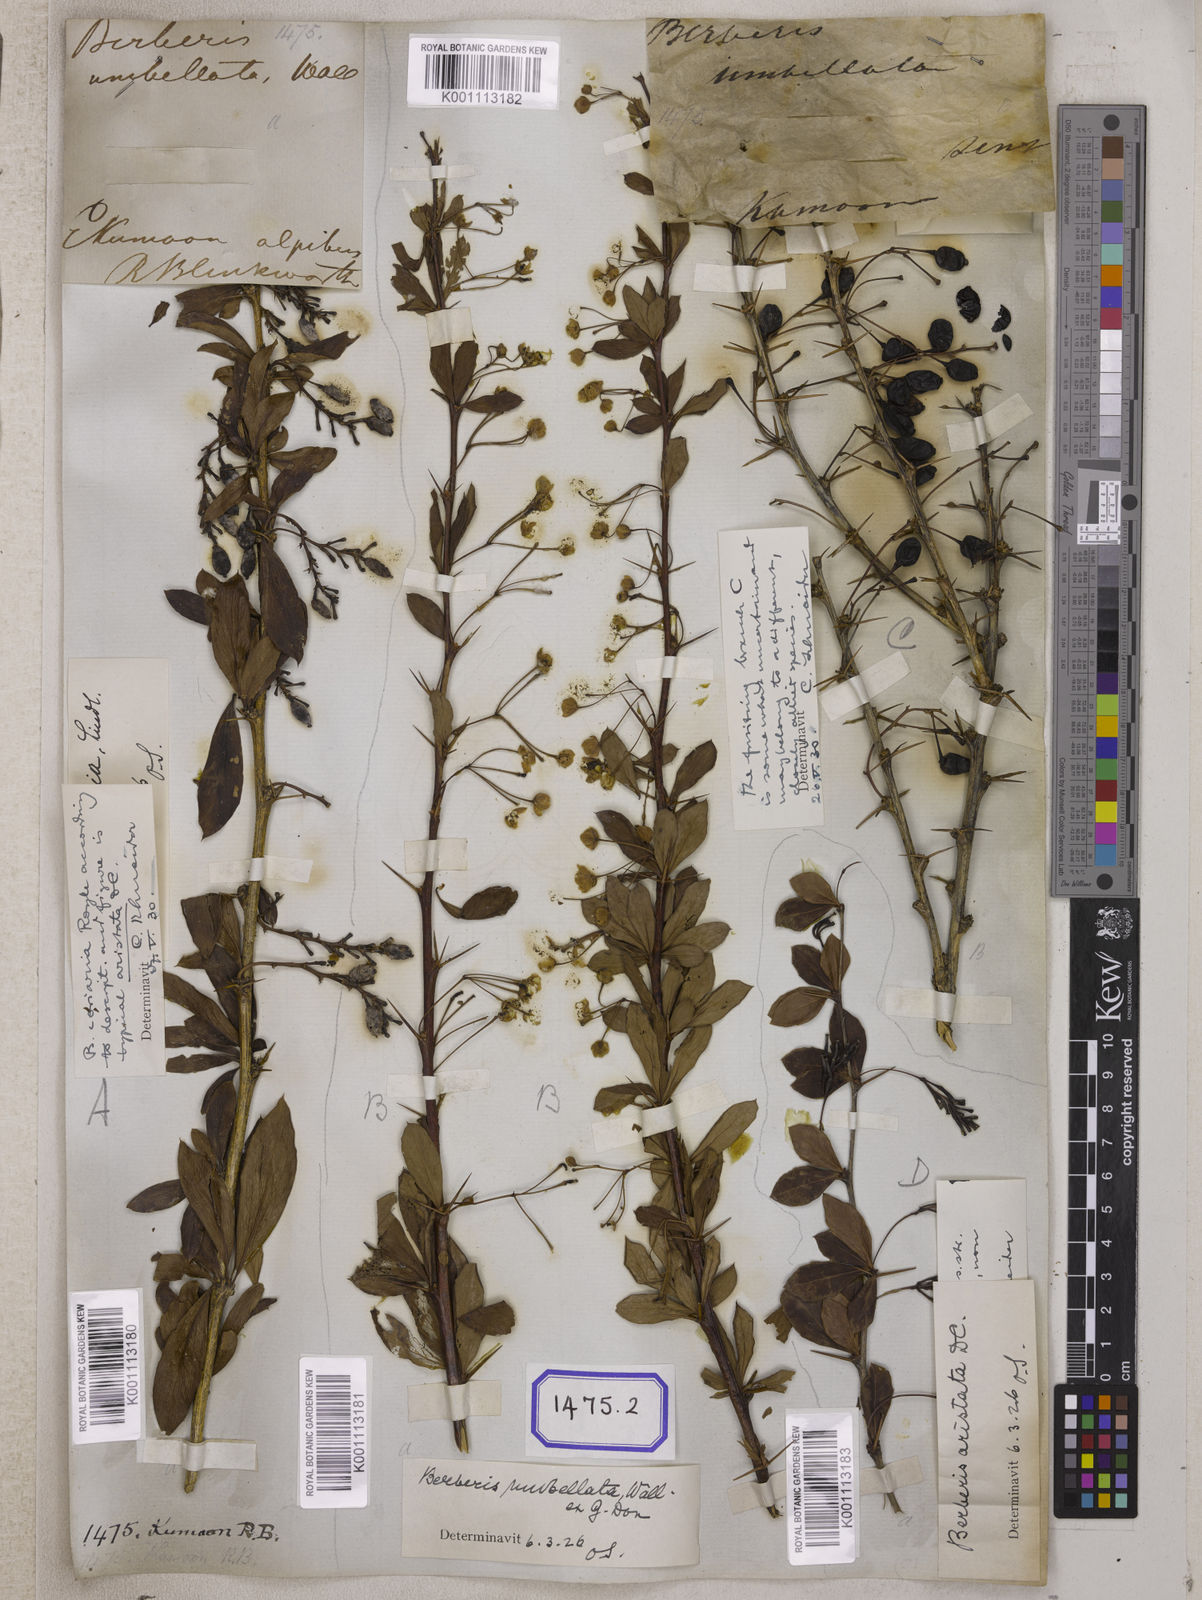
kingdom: Plantae
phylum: Tracheophyta
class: Magnoliopsida
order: Ranunculales
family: Berberidaceae
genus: Berberis
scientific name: Berberis
